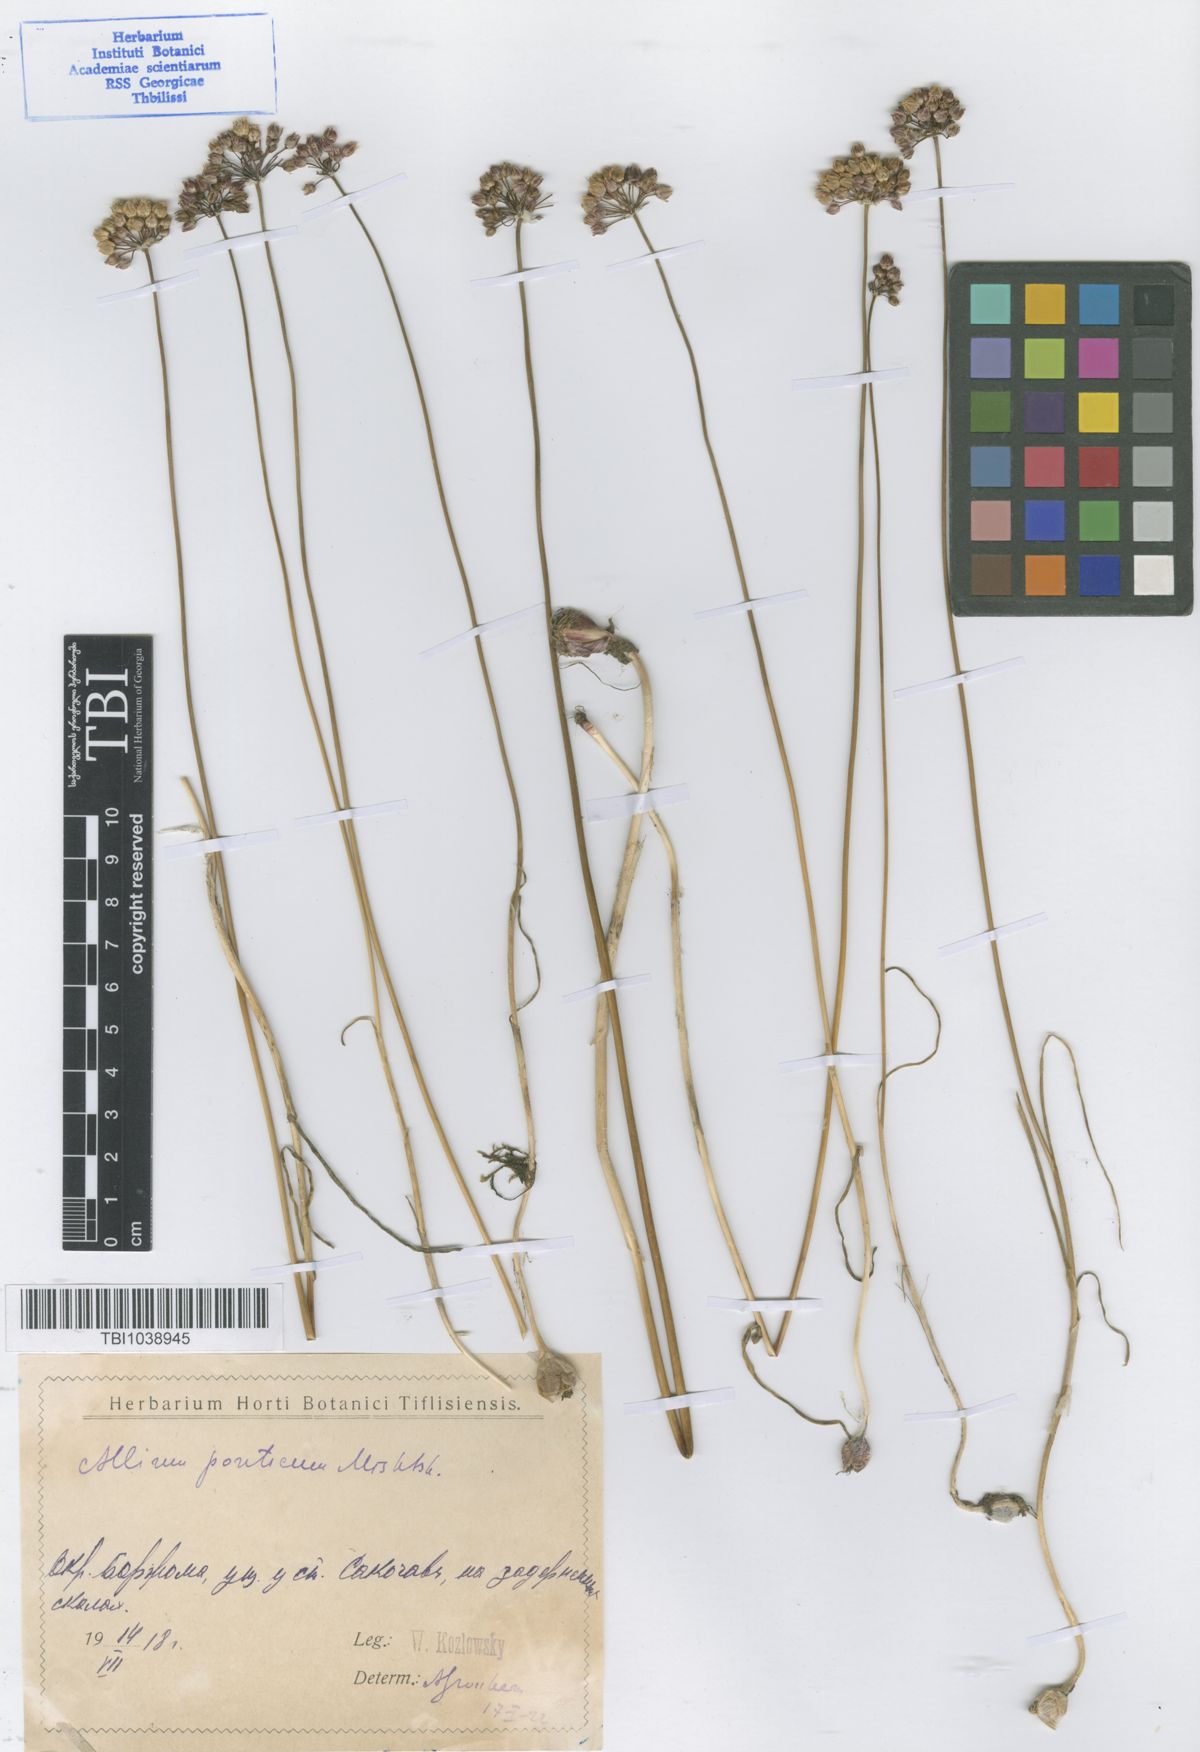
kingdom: Plantae
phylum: Tracheophyta
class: Liliopsida
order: Asparagales
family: Amaryllidaceae
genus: Allium
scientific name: Allium ponticum
